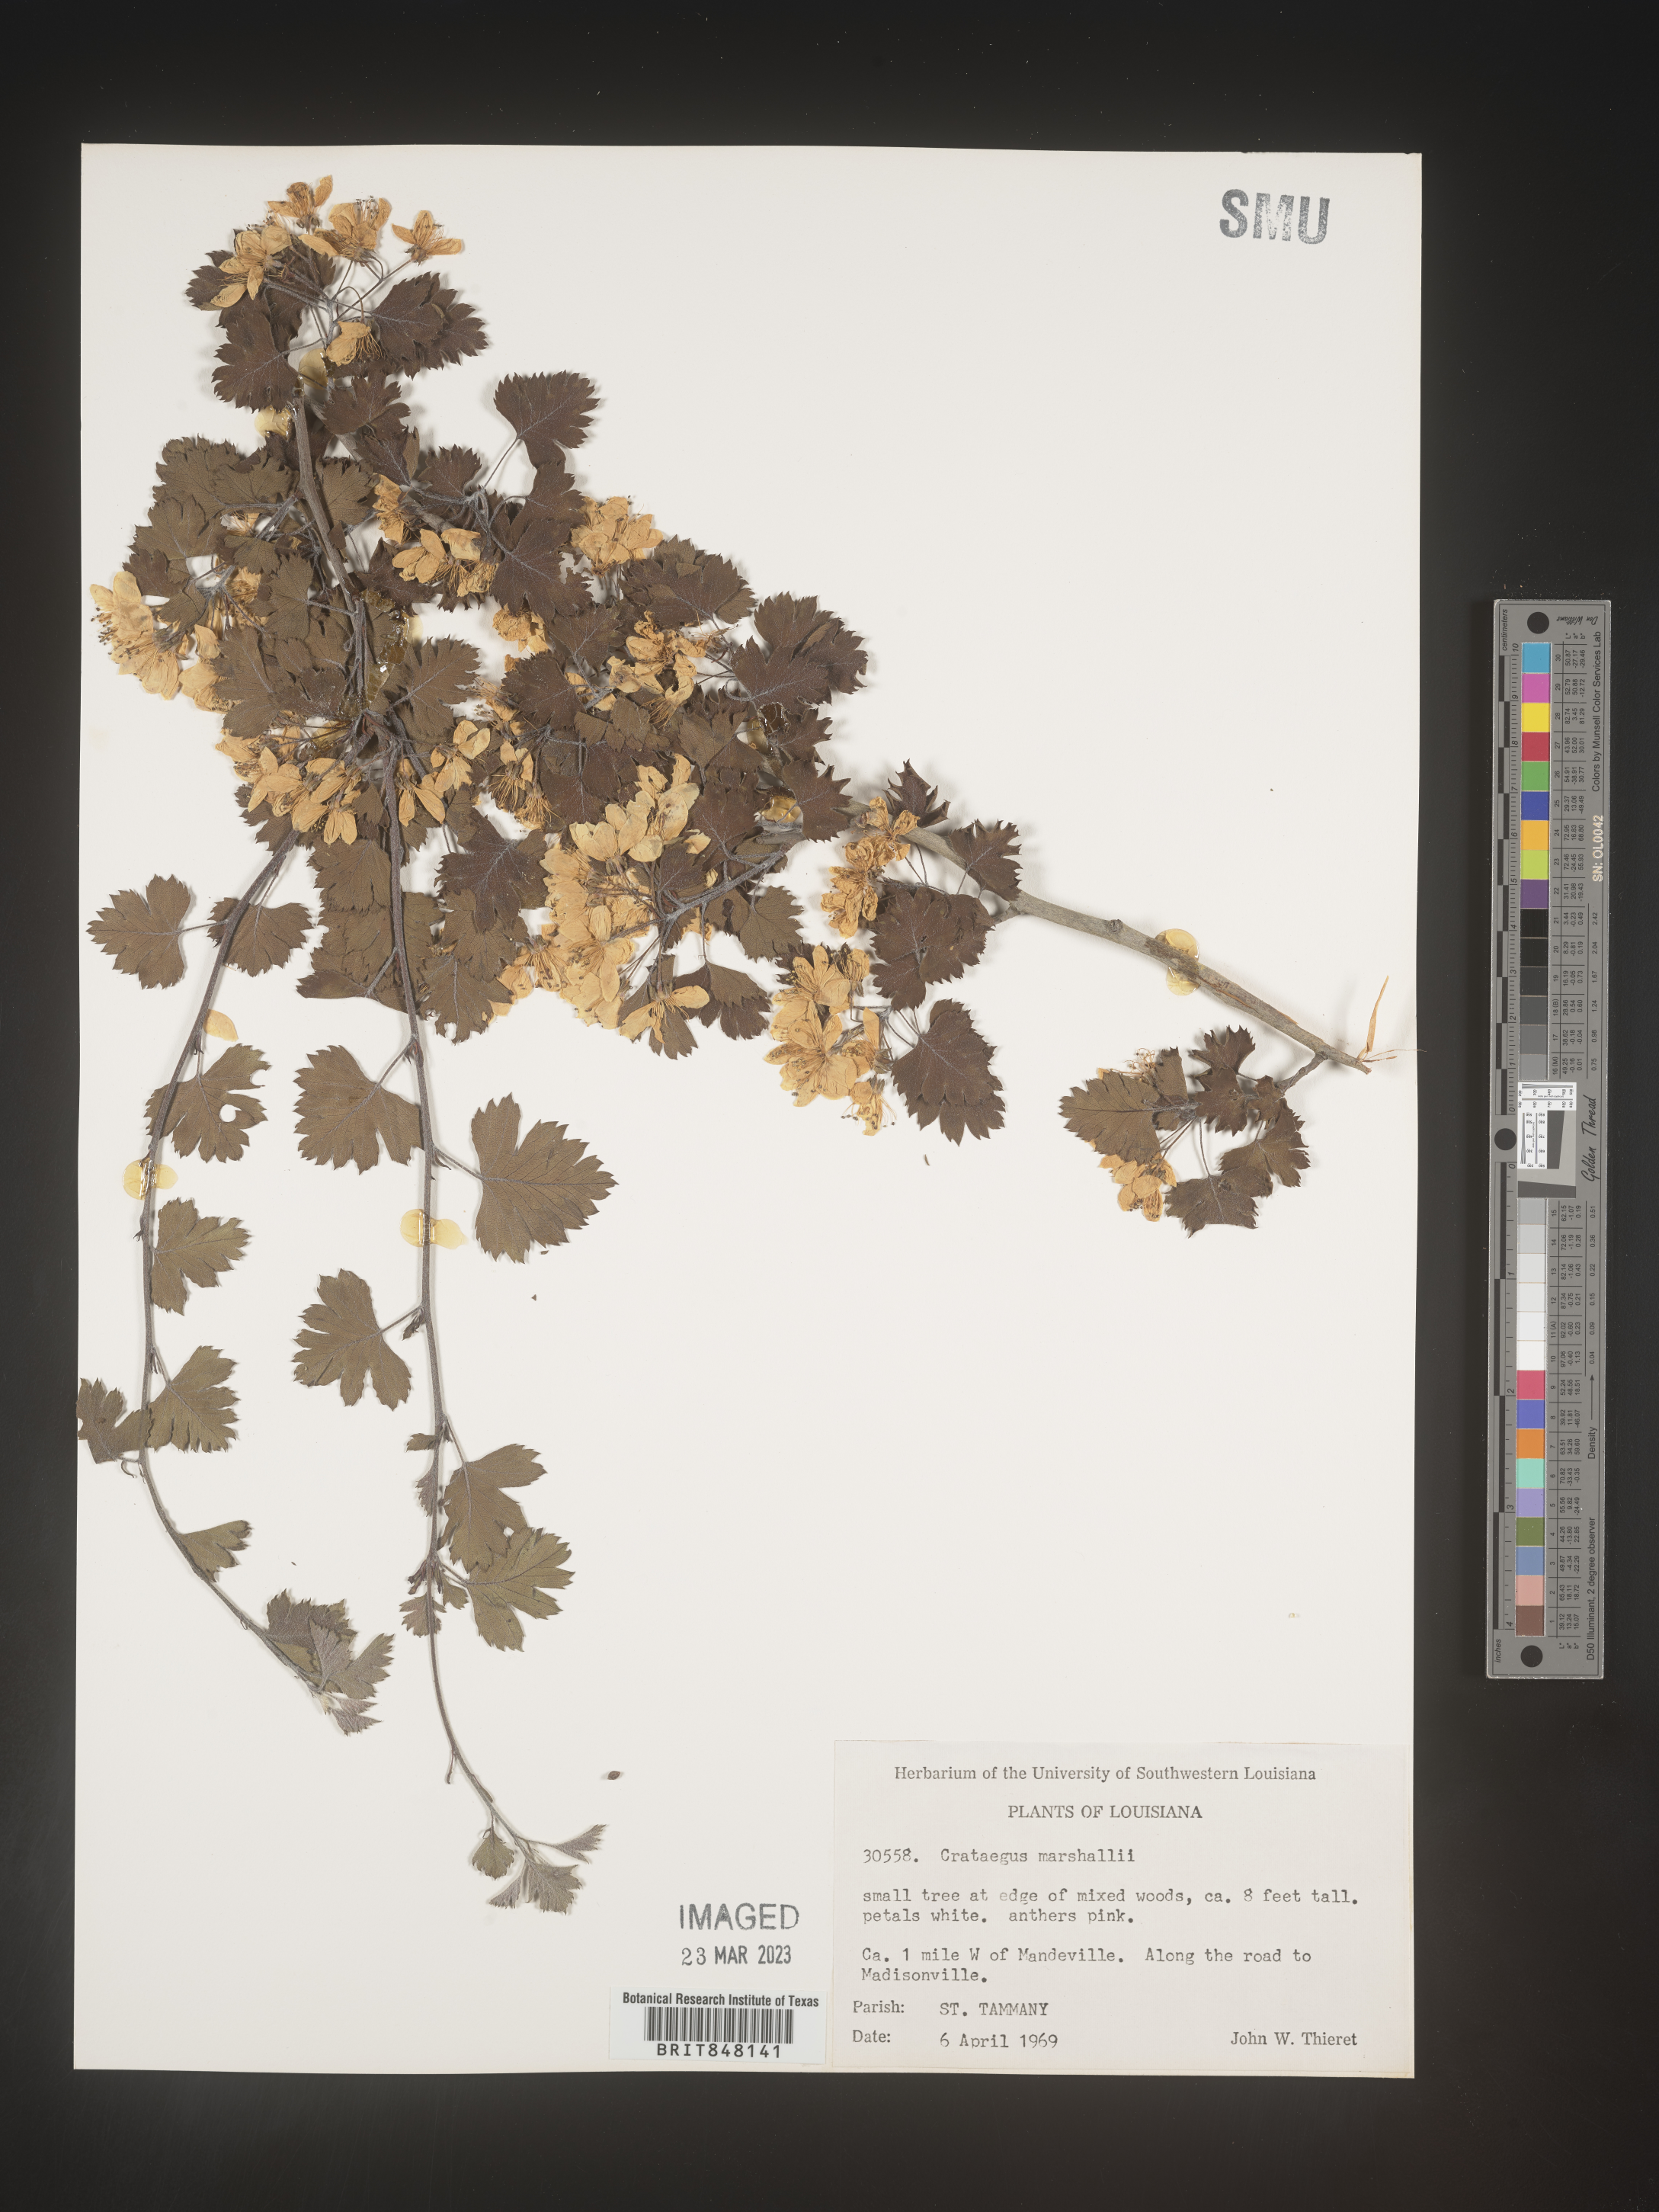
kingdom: Plantae
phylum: Tracheophyta
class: Magnoliopsida
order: Rosales
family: Rosaceae
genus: Crataegus
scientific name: Crataegus marshallii
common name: Parsley-hawthorn
